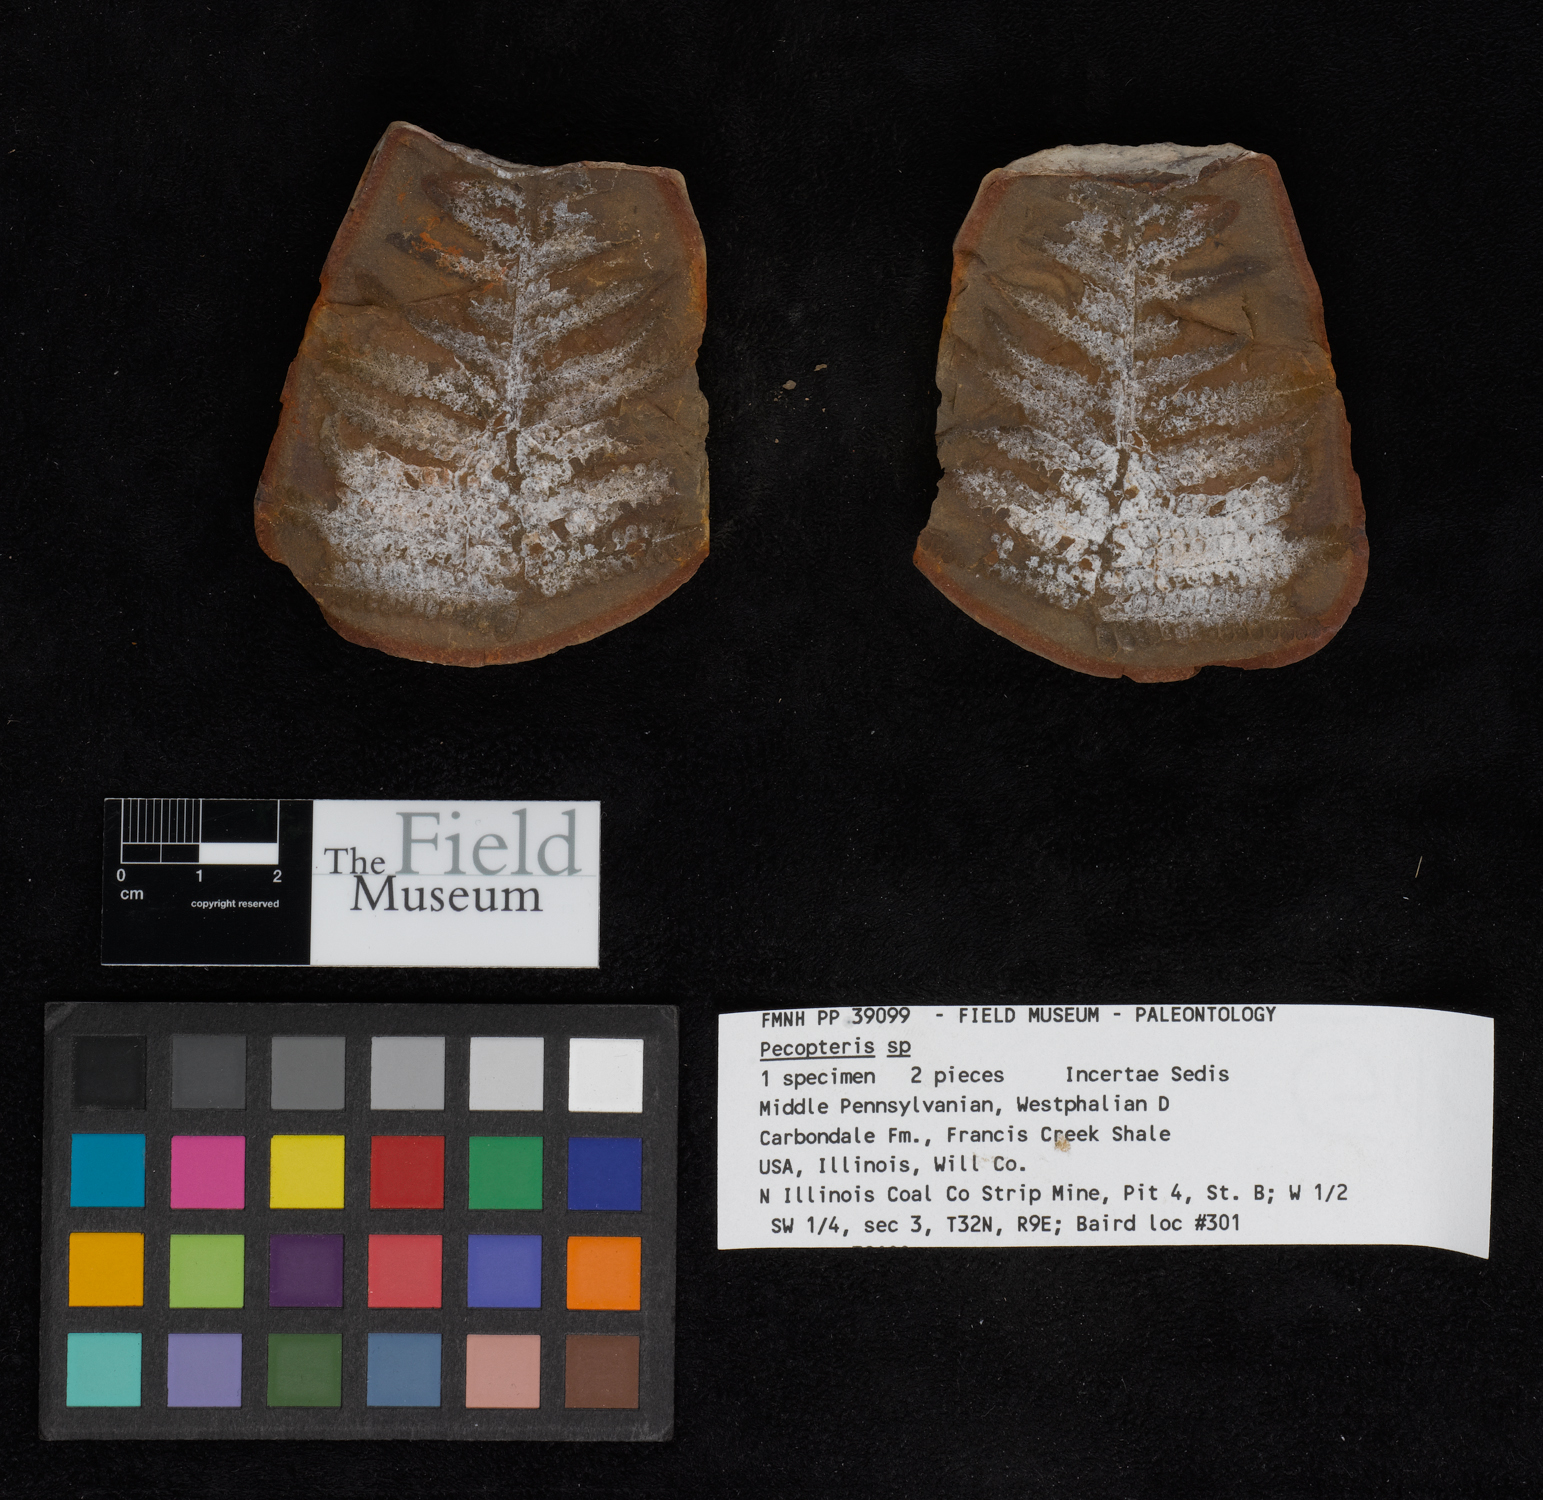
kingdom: Plantae
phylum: Tracheophyta
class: Polypodiopsida
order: Marattiales
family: Asterothecaceae
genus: Pecopteris
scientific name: Pecopteris
